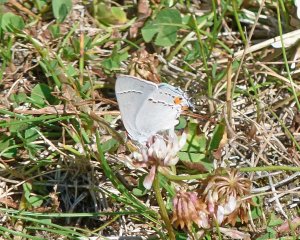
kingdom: Animalia
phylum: Arthropoda
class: Insecta
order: Lepidoptera
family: Lycaenidae
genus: Strymon
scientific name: Strymon melinus
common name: Gray Hairstreak
